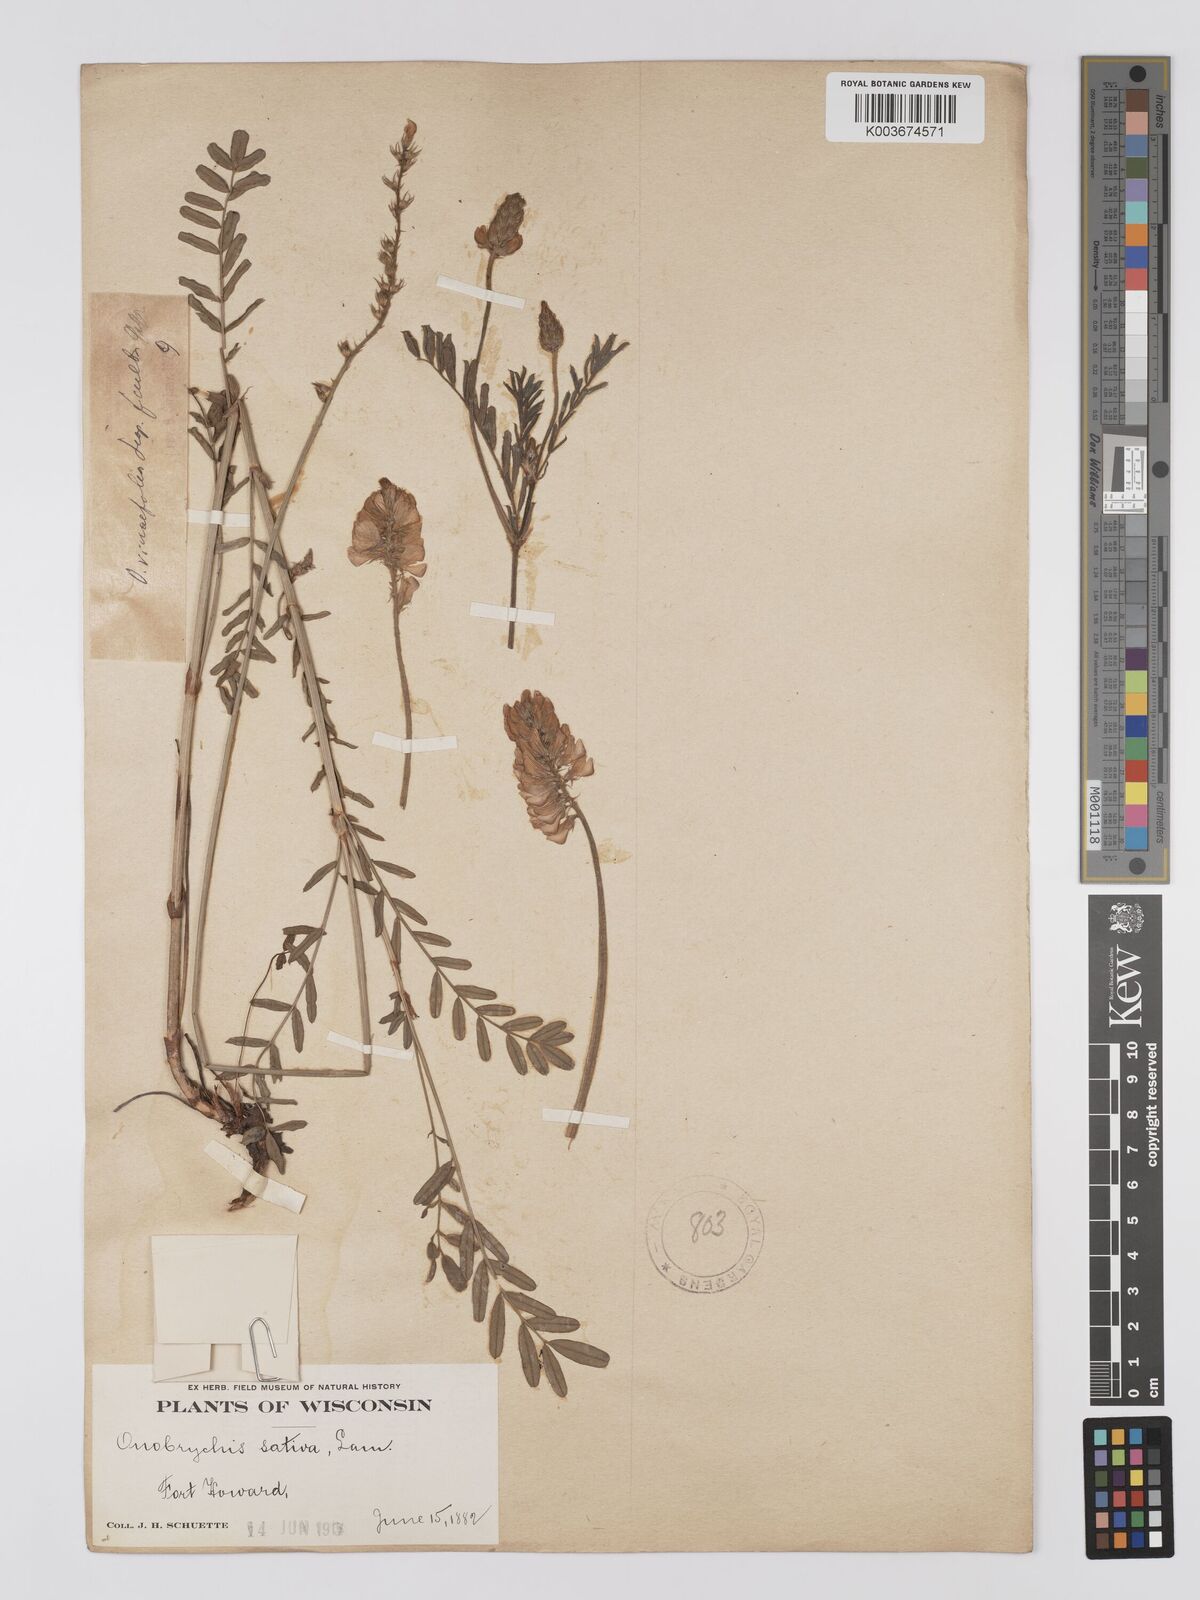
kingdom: Plantae
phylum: Tracheophyta
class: Magnoliopsida
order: Fabales
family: Fabaceae
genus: Onobrychis
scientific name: Onobrychis viciifolia
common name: Sainfoin
